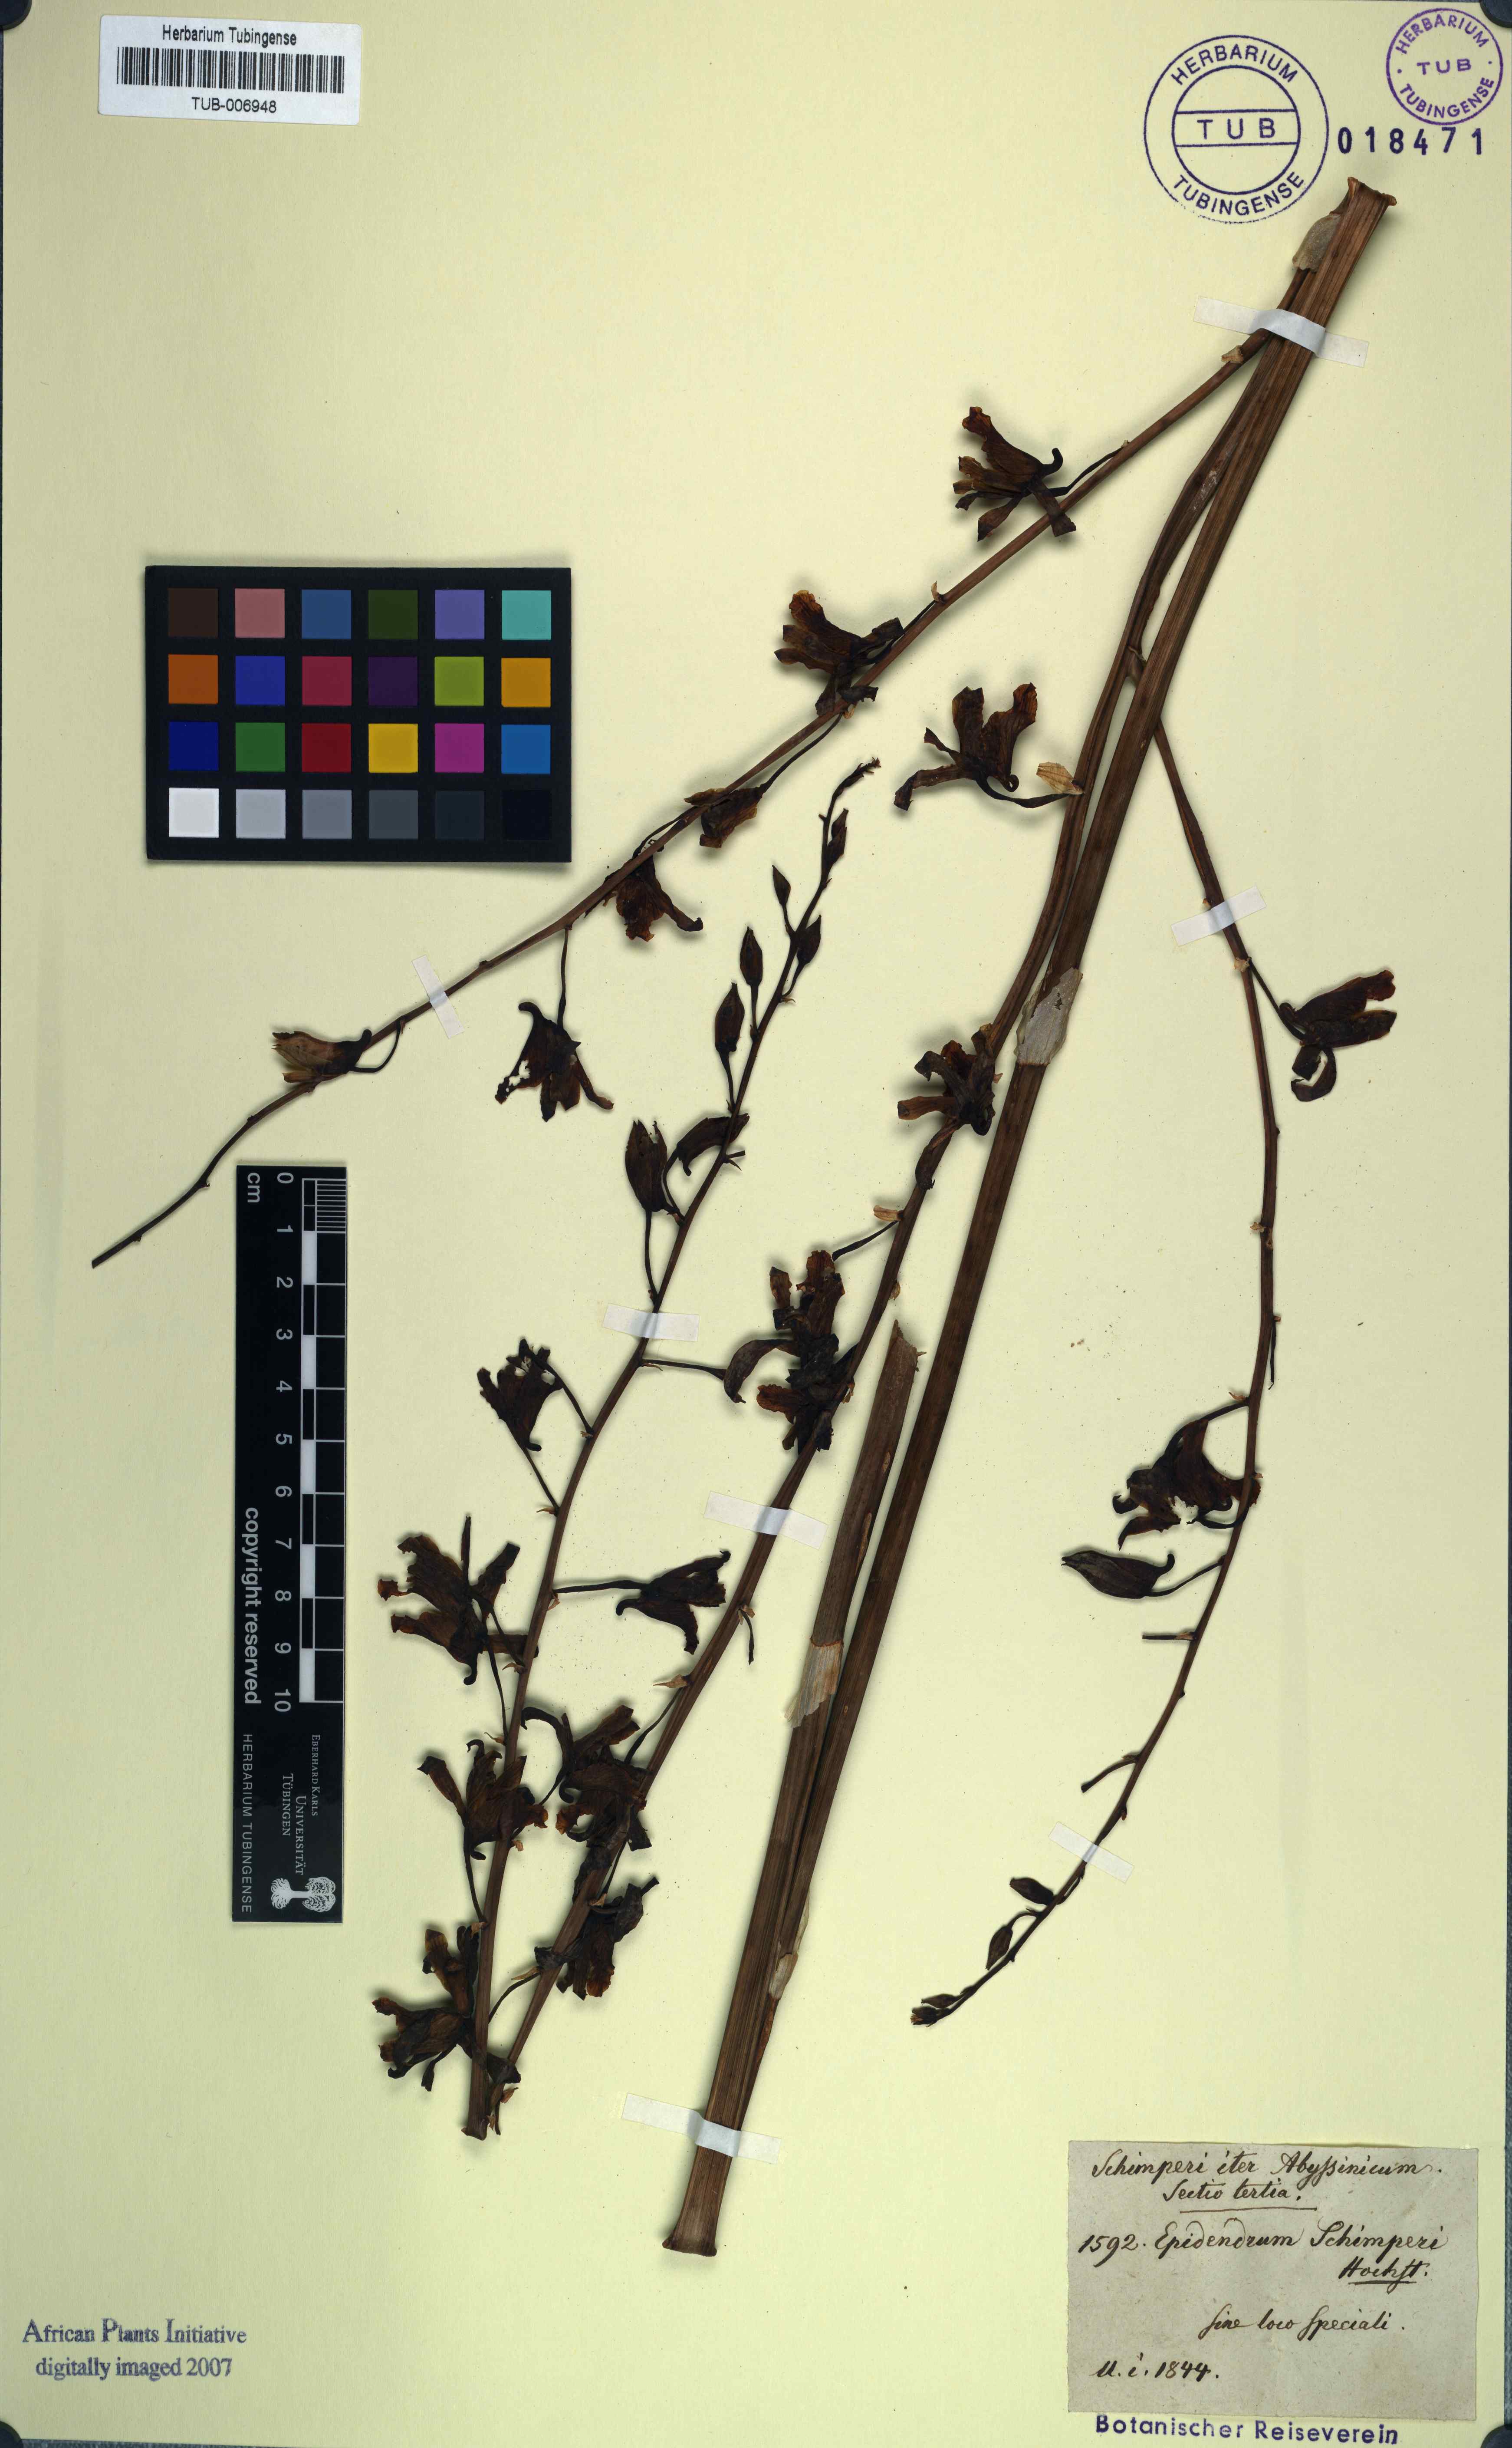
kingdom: Plantae
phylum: Tracheophyta
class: Liliopsida
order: Asparagales
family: Orchidaceae
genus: Eulophia
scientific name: Eulophia petersii
